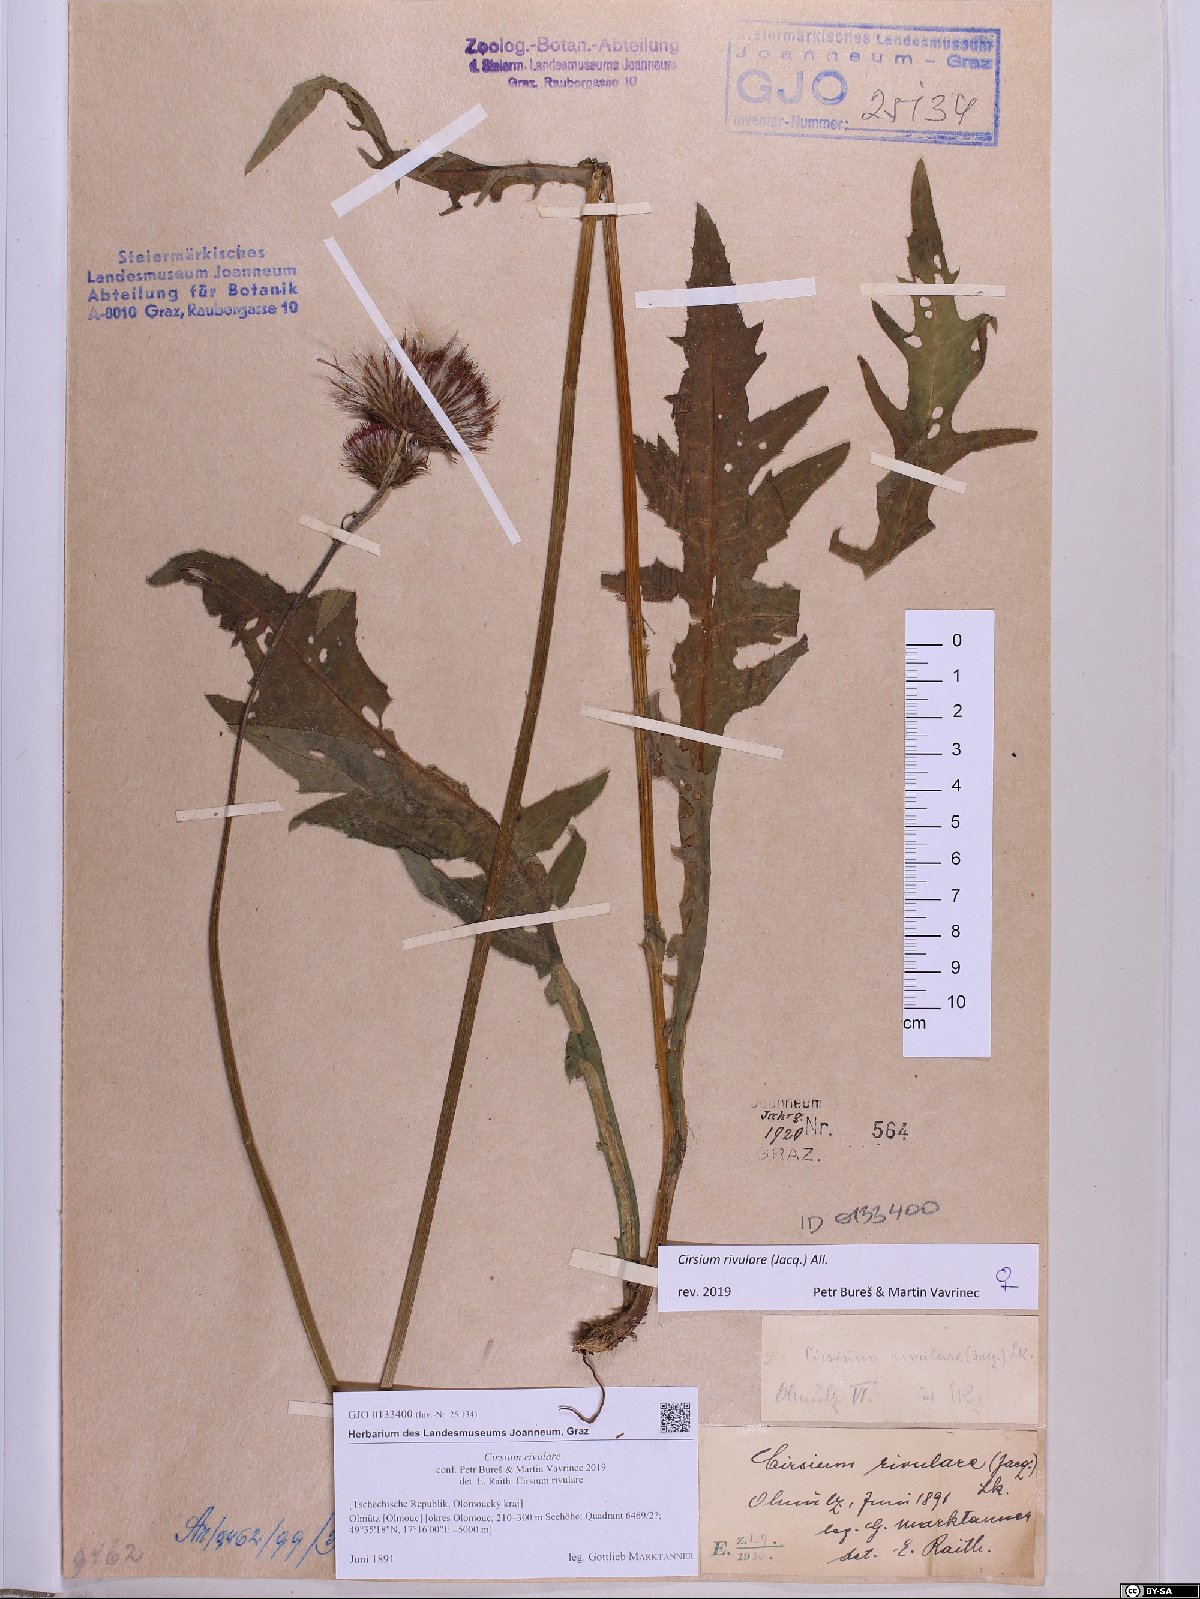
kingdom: Plantae
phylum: Tracheophyta
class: Magnoliopsida
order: Asterales
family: Asteraceae
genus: Cirsium
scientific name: Cirsium rivulare
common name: Brook thistle
